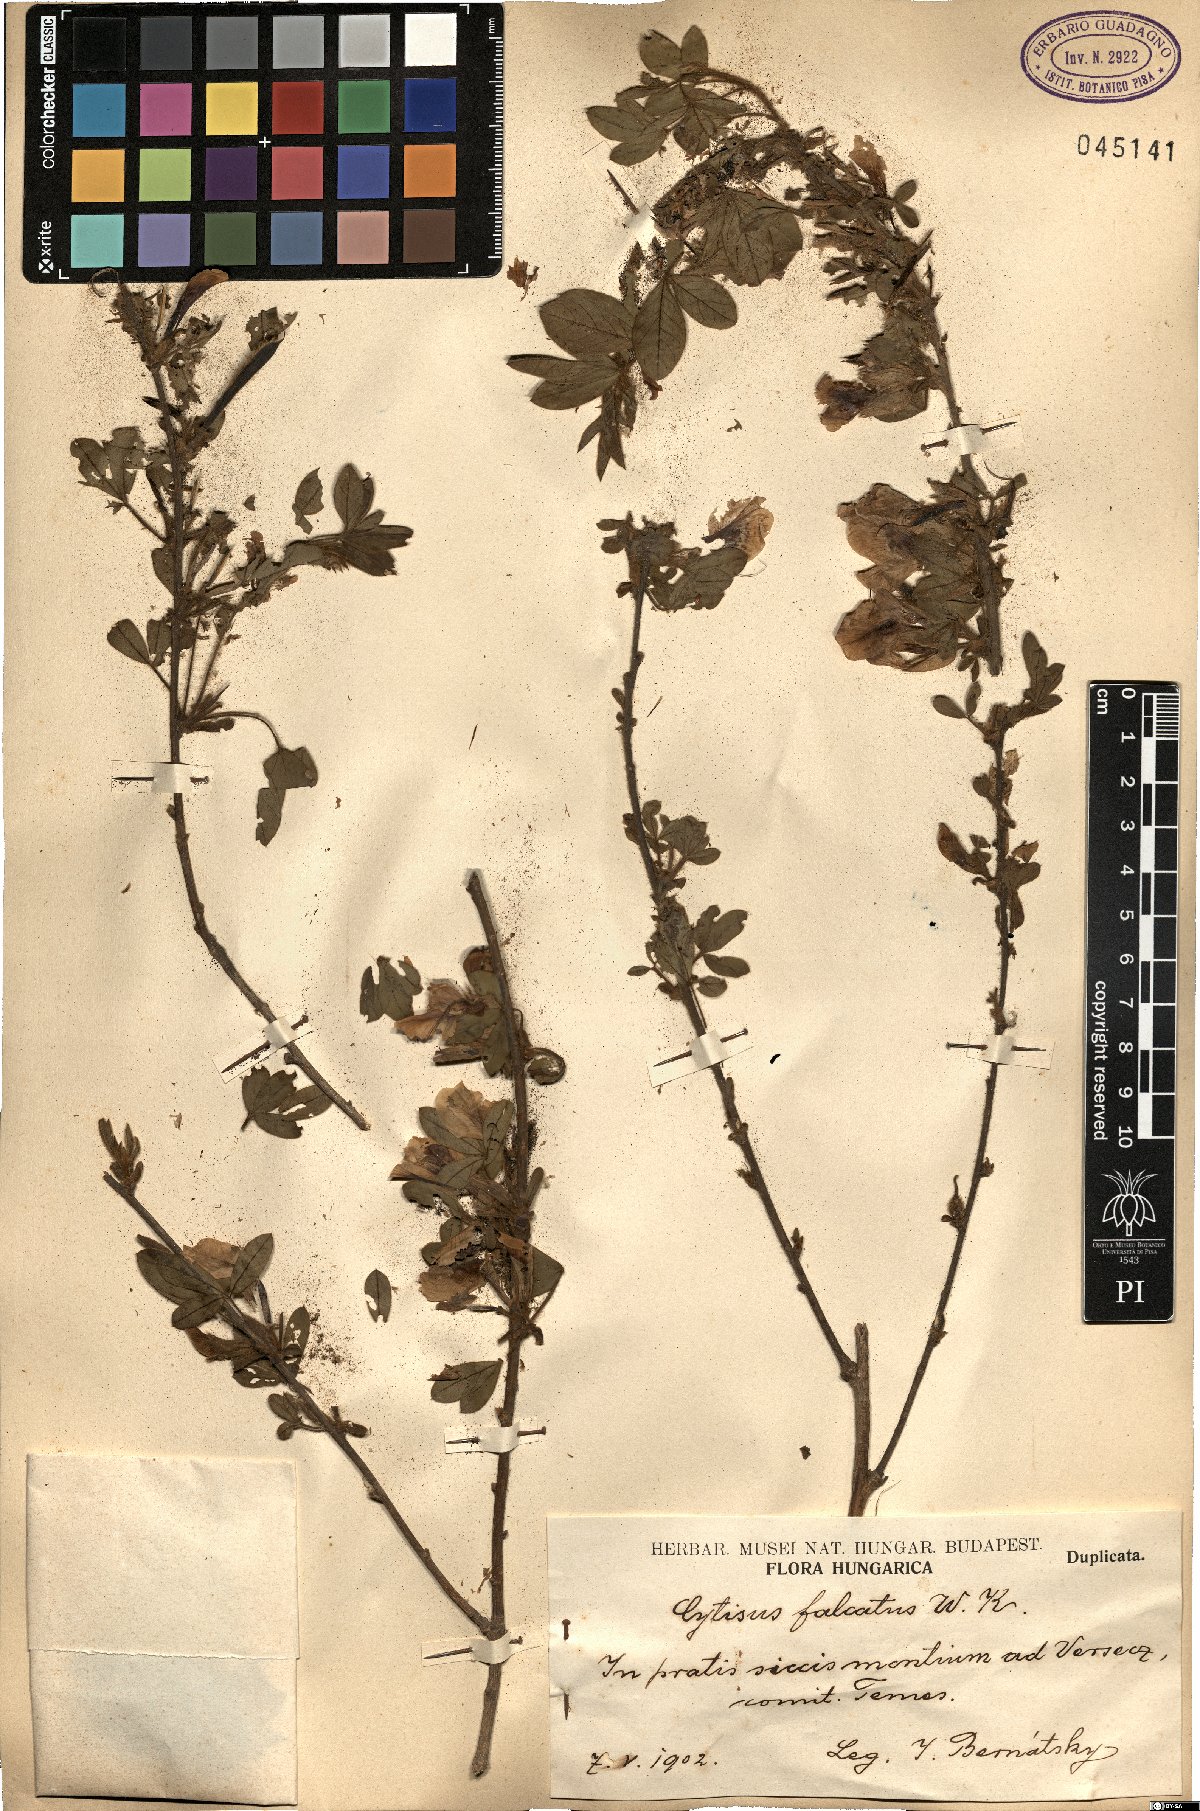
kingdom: Plantae
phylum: Tracheophyta
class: Magnoliopsida
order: Fabales
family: Fabaceae
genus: Chamaecytisus
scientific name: Chamaecytisus hirsutus
